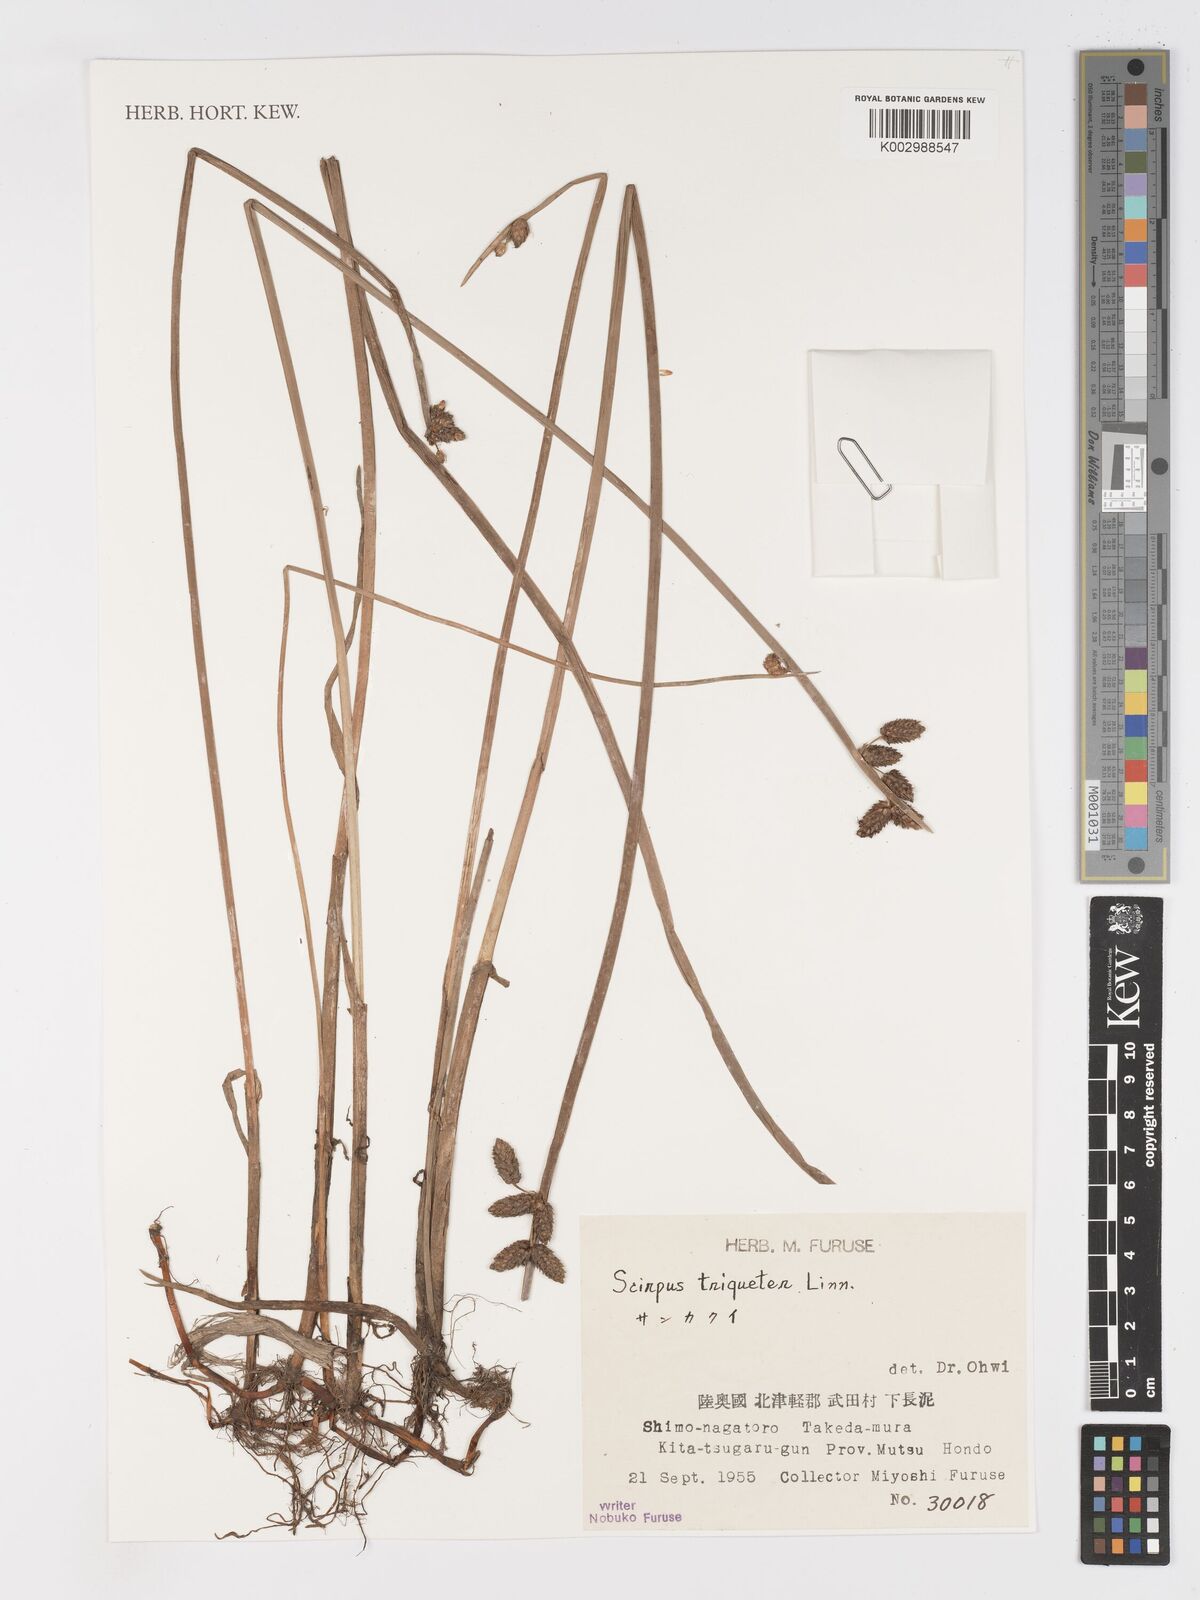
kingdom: Plantae
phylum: Tracheophyta
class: Liliopsida
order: Poales
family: Cyperaceae
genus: Schoenoplectus
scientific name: Schoenoplectus triqueter
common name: Triangular club-rush
